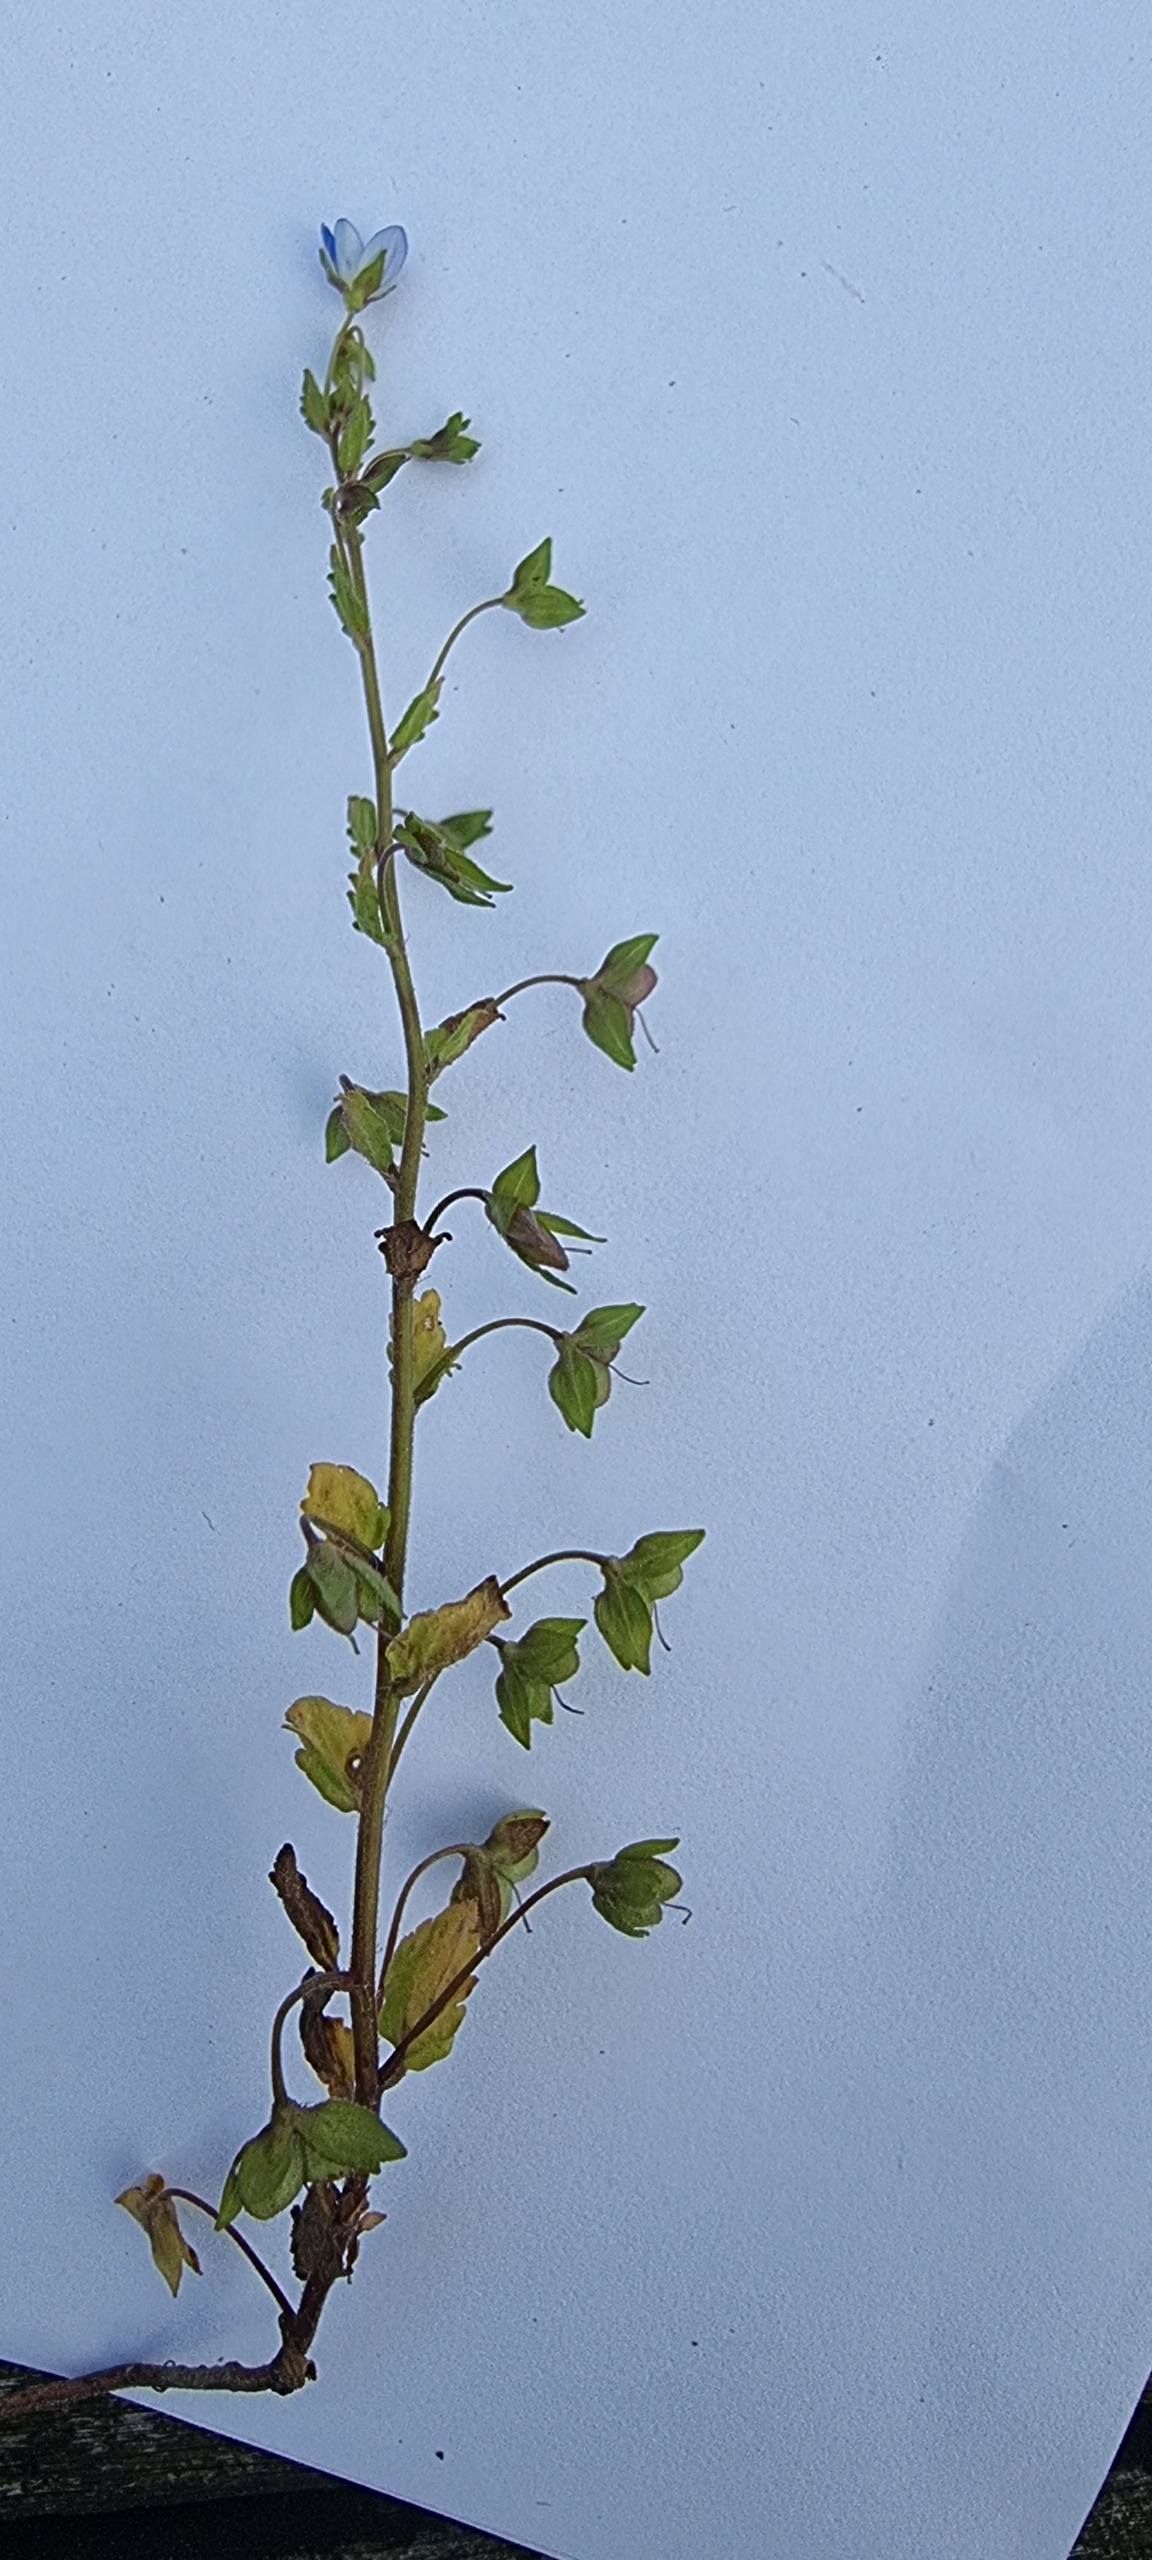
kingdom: Plantae
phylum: Tracheophyta
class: Magnoliopsida
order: Lamiales
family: Plantaginaceae
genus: Veronica
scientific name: Veronica persica
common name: Storkronet ærenpris
